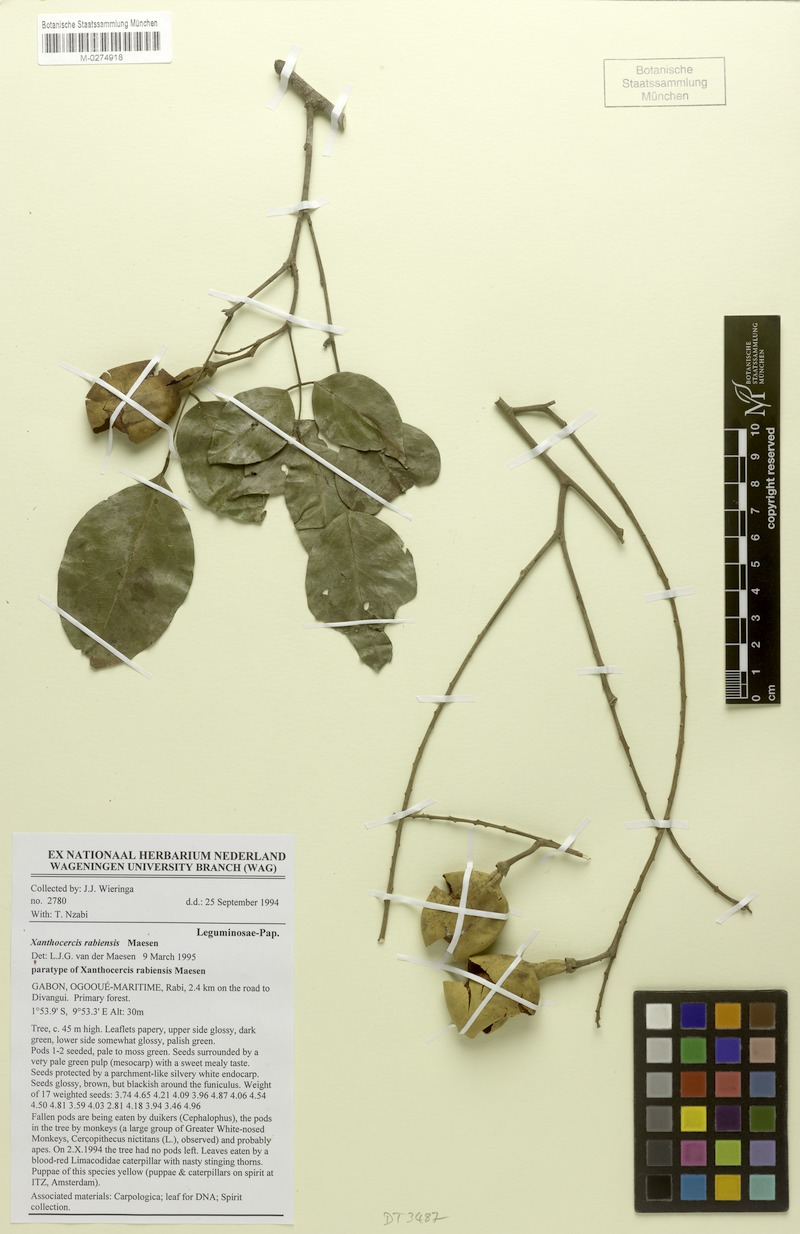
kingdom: Plantae
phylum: Tracheophyta
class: Magnoliopsida
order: Fabales
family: Fabaceae
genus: Xanthocercis
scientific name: Xanthocercis rabiensis
